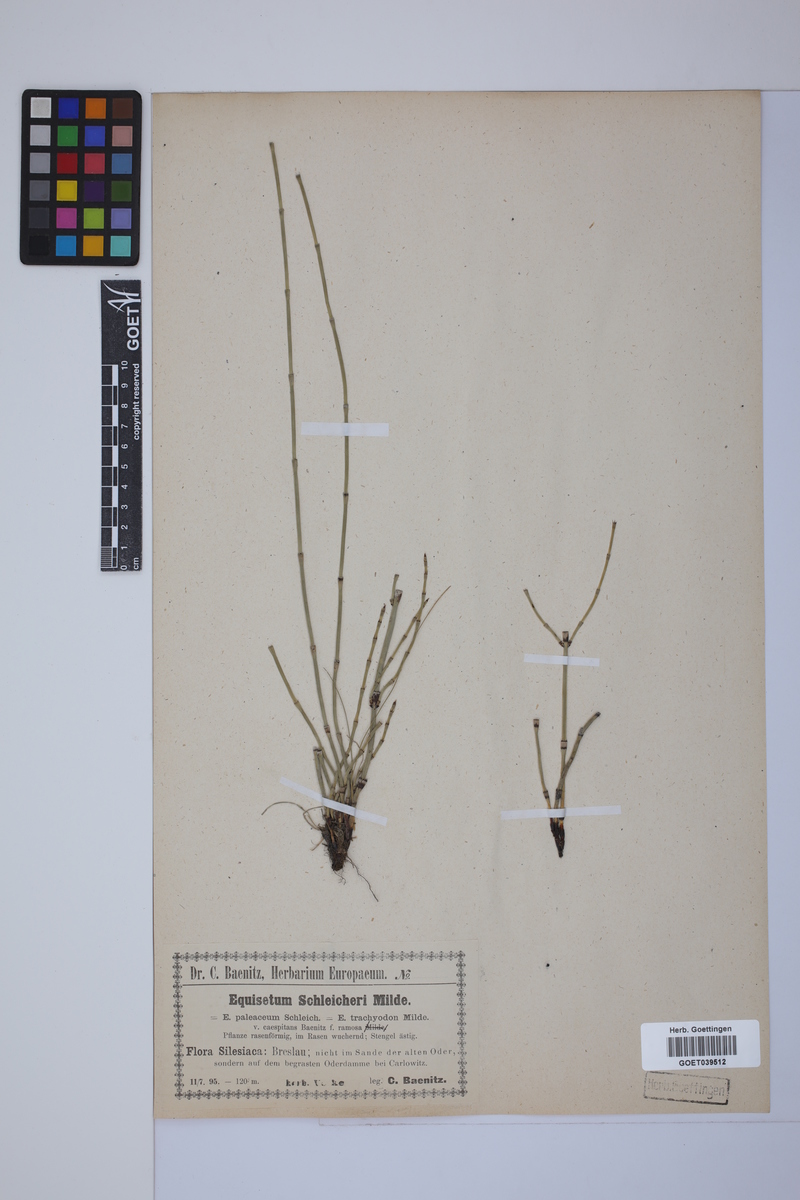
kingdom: Plantae
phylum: Tracheophyta
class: Polypodiopsida
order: Equisetales
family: Equisetaceae
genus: Equisetum
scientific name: Equisetum trachyodon
